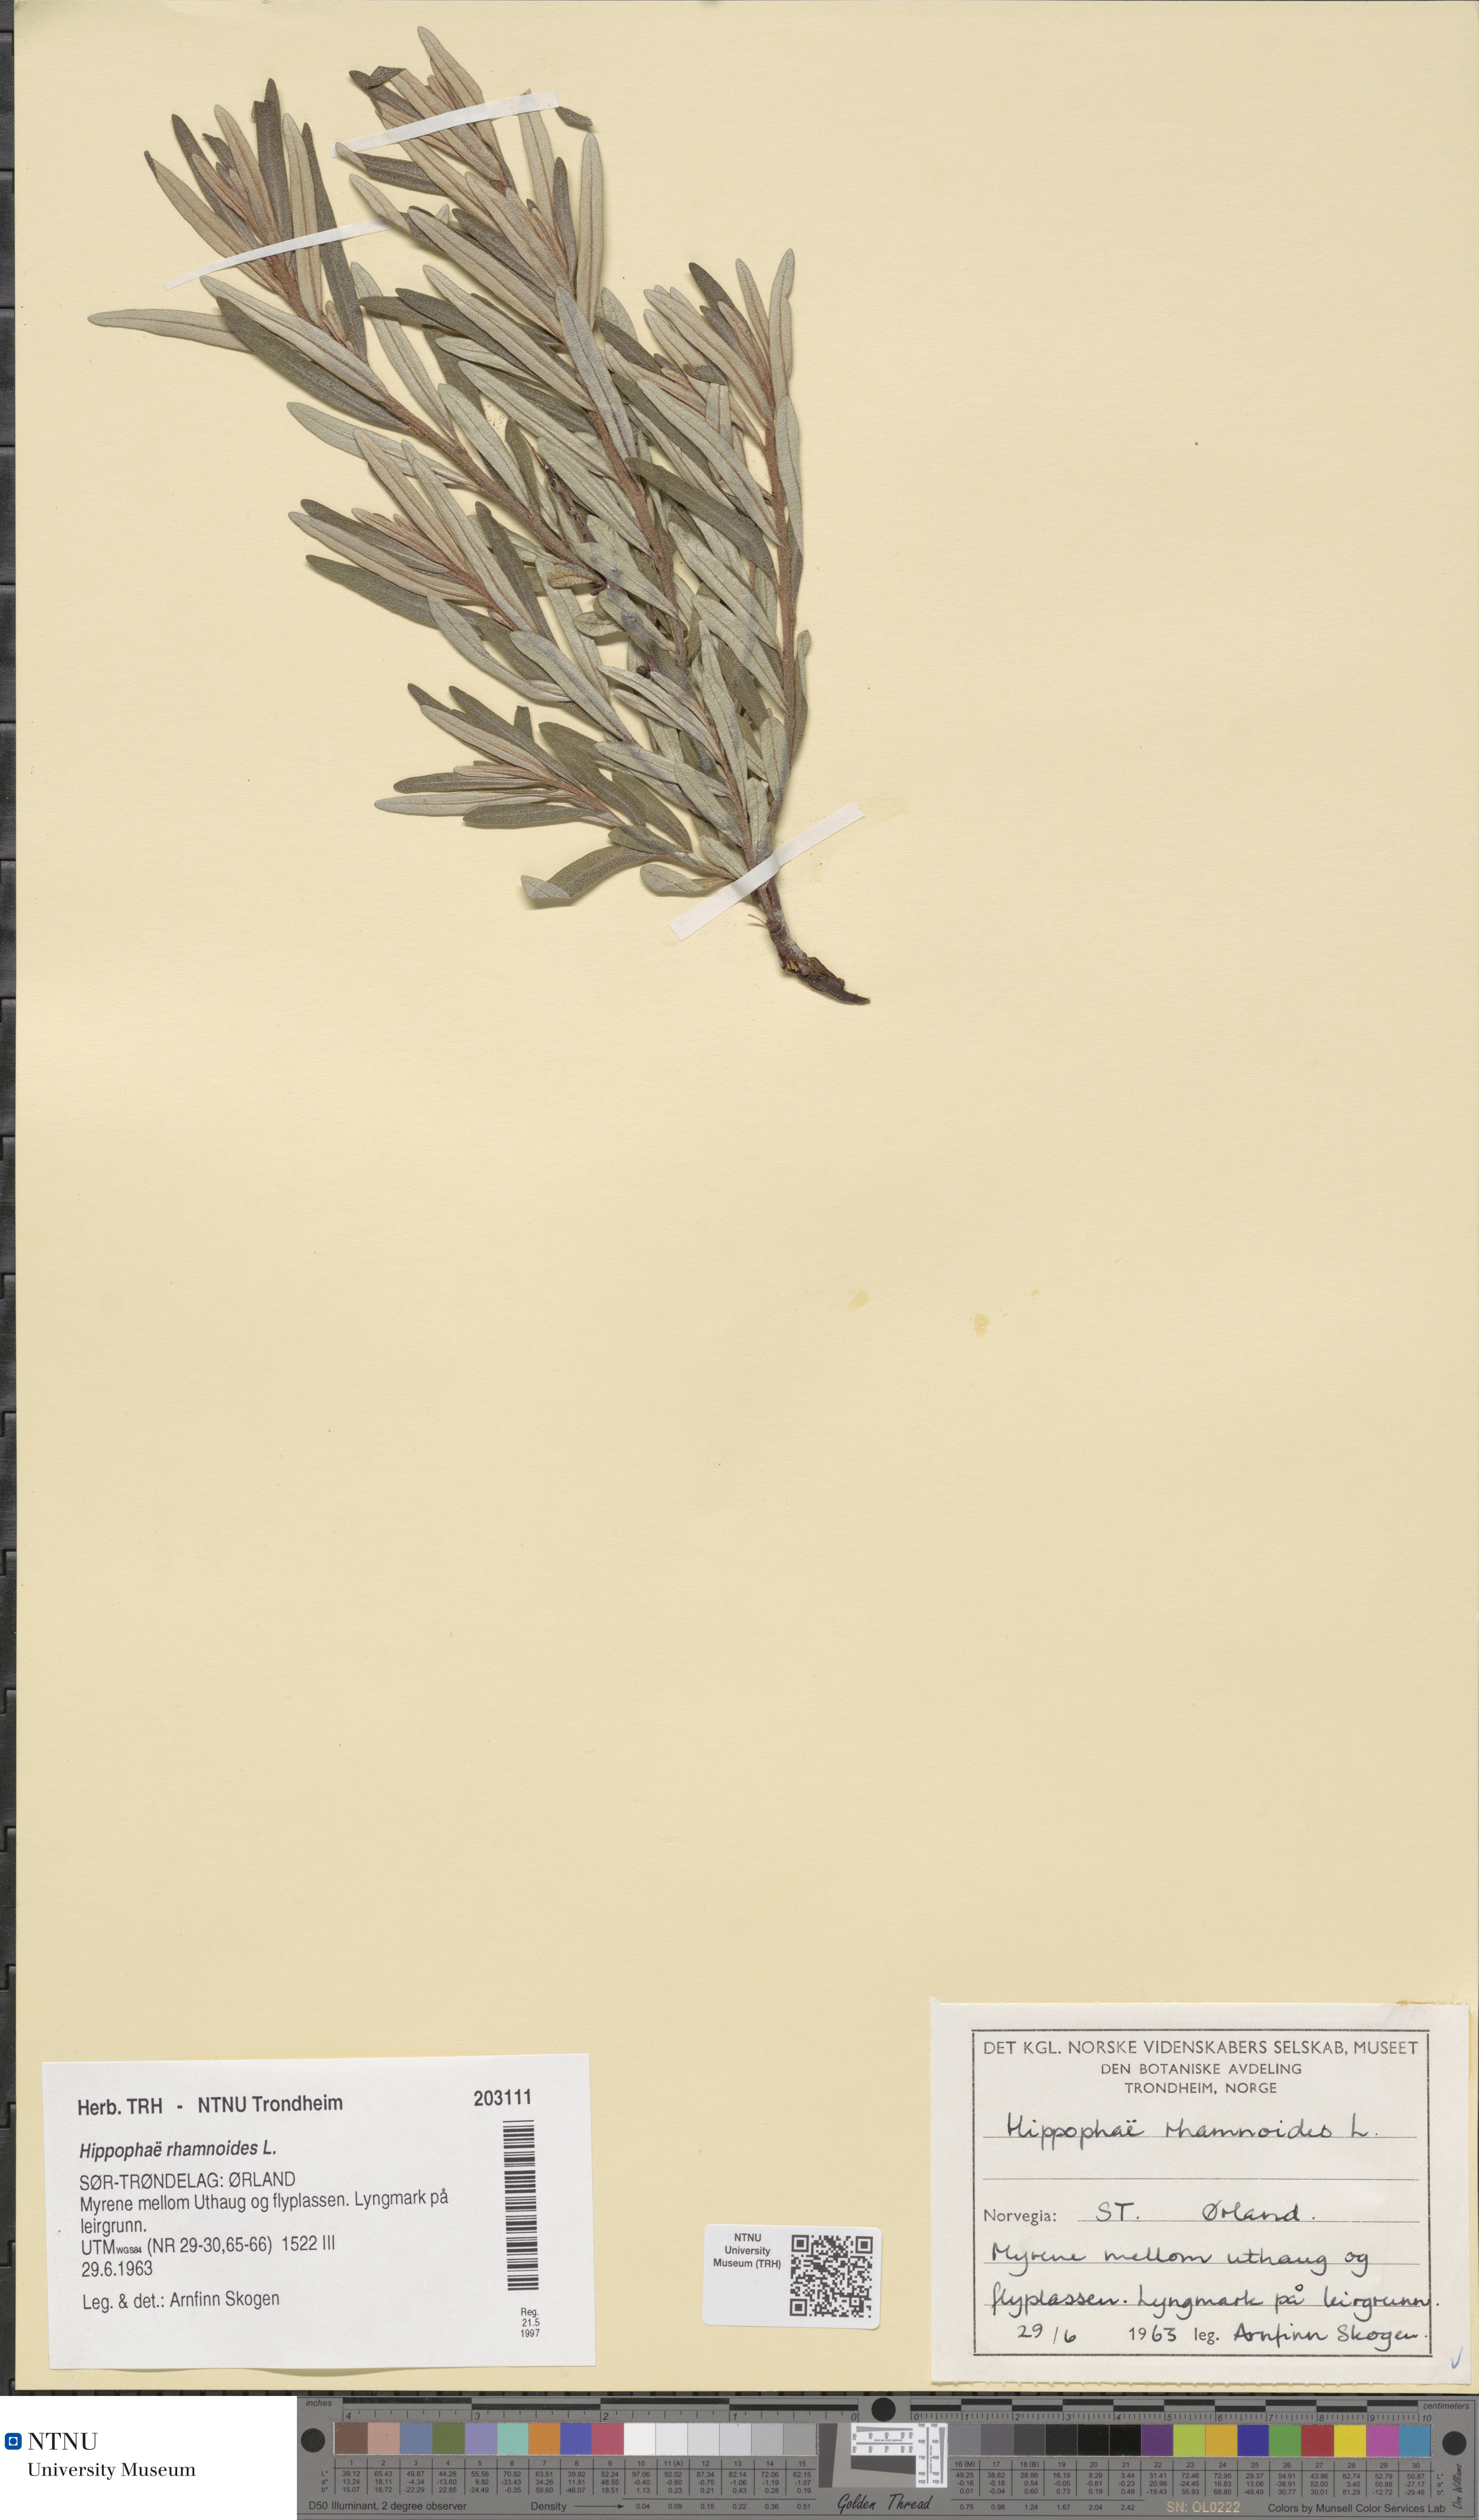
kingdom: Plantae
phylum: Tracheophyta
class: Magnoliopsida
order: Rosales
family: Elaeagnaceae
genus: Hippophae
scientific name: Hippophae rhamnoides
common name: Sea-buckthorn
